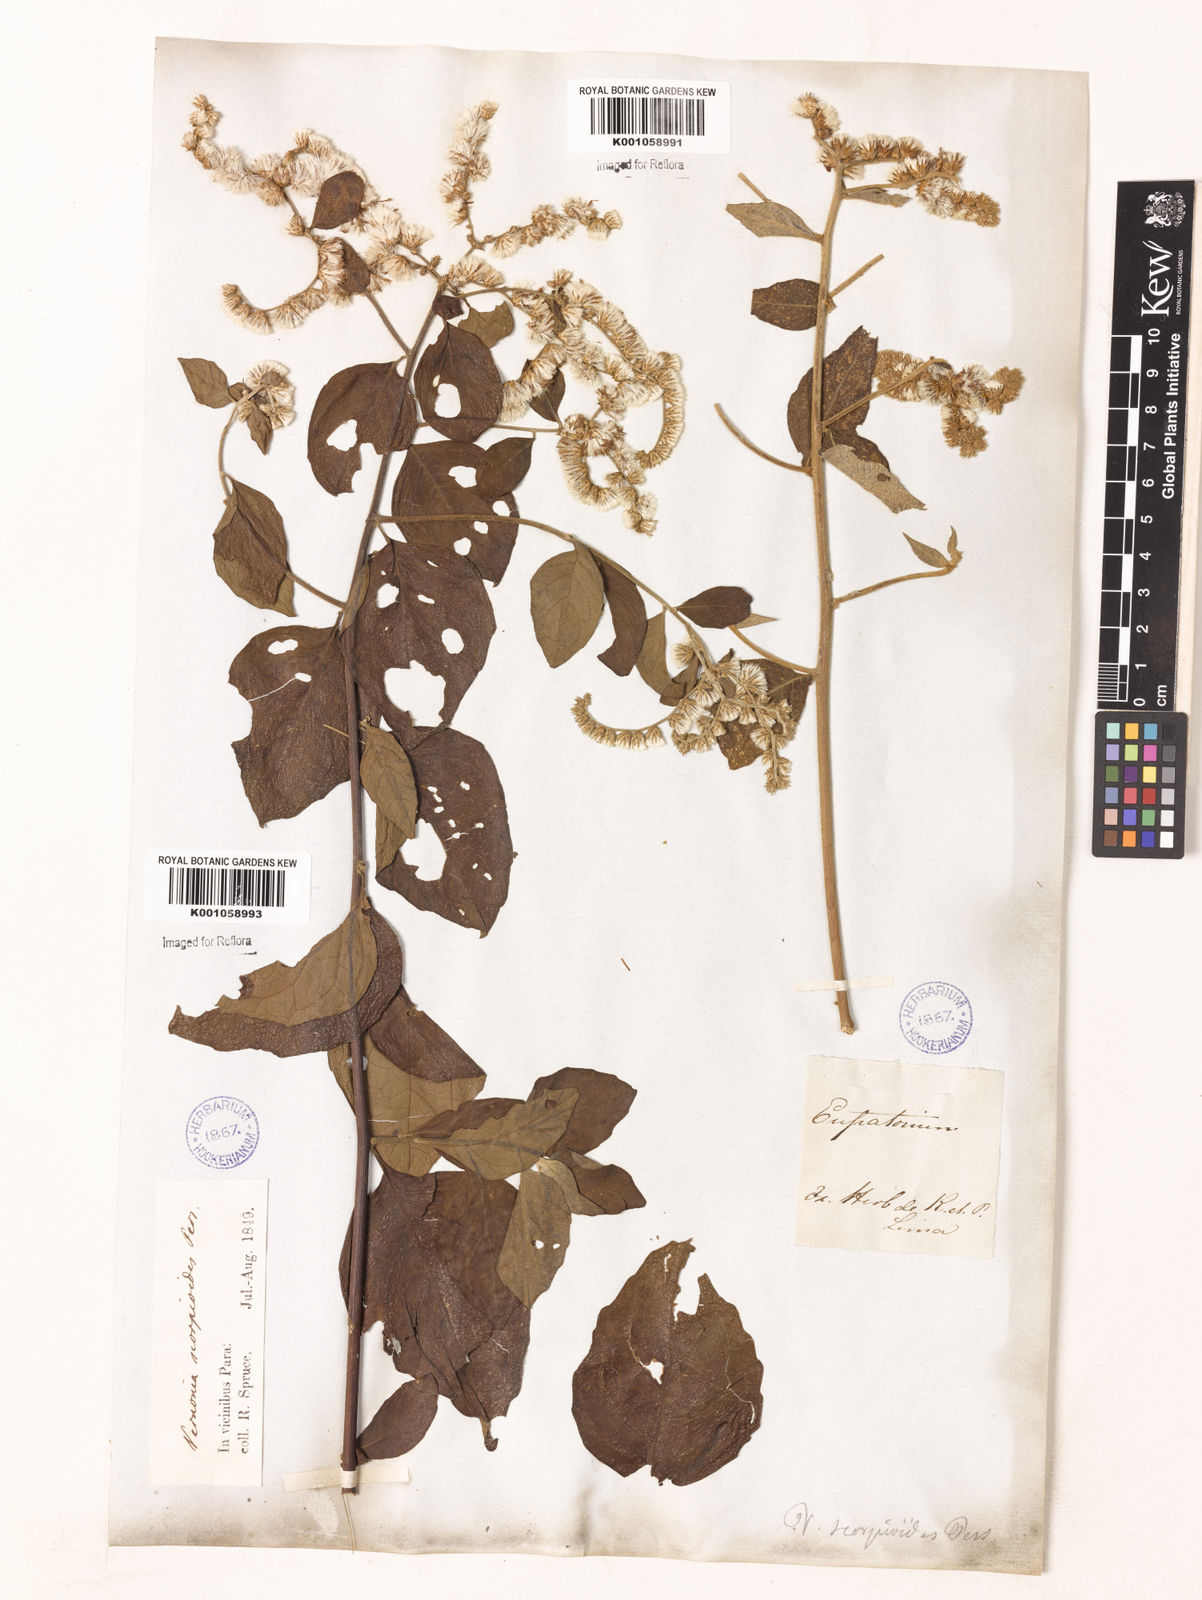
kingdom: Plantae
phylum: Tracheophyta
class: Magnoliopsida
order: Asterales
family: Asteraceae
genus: Cyrtocymura
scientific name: Cyrtocymura scorpioides
